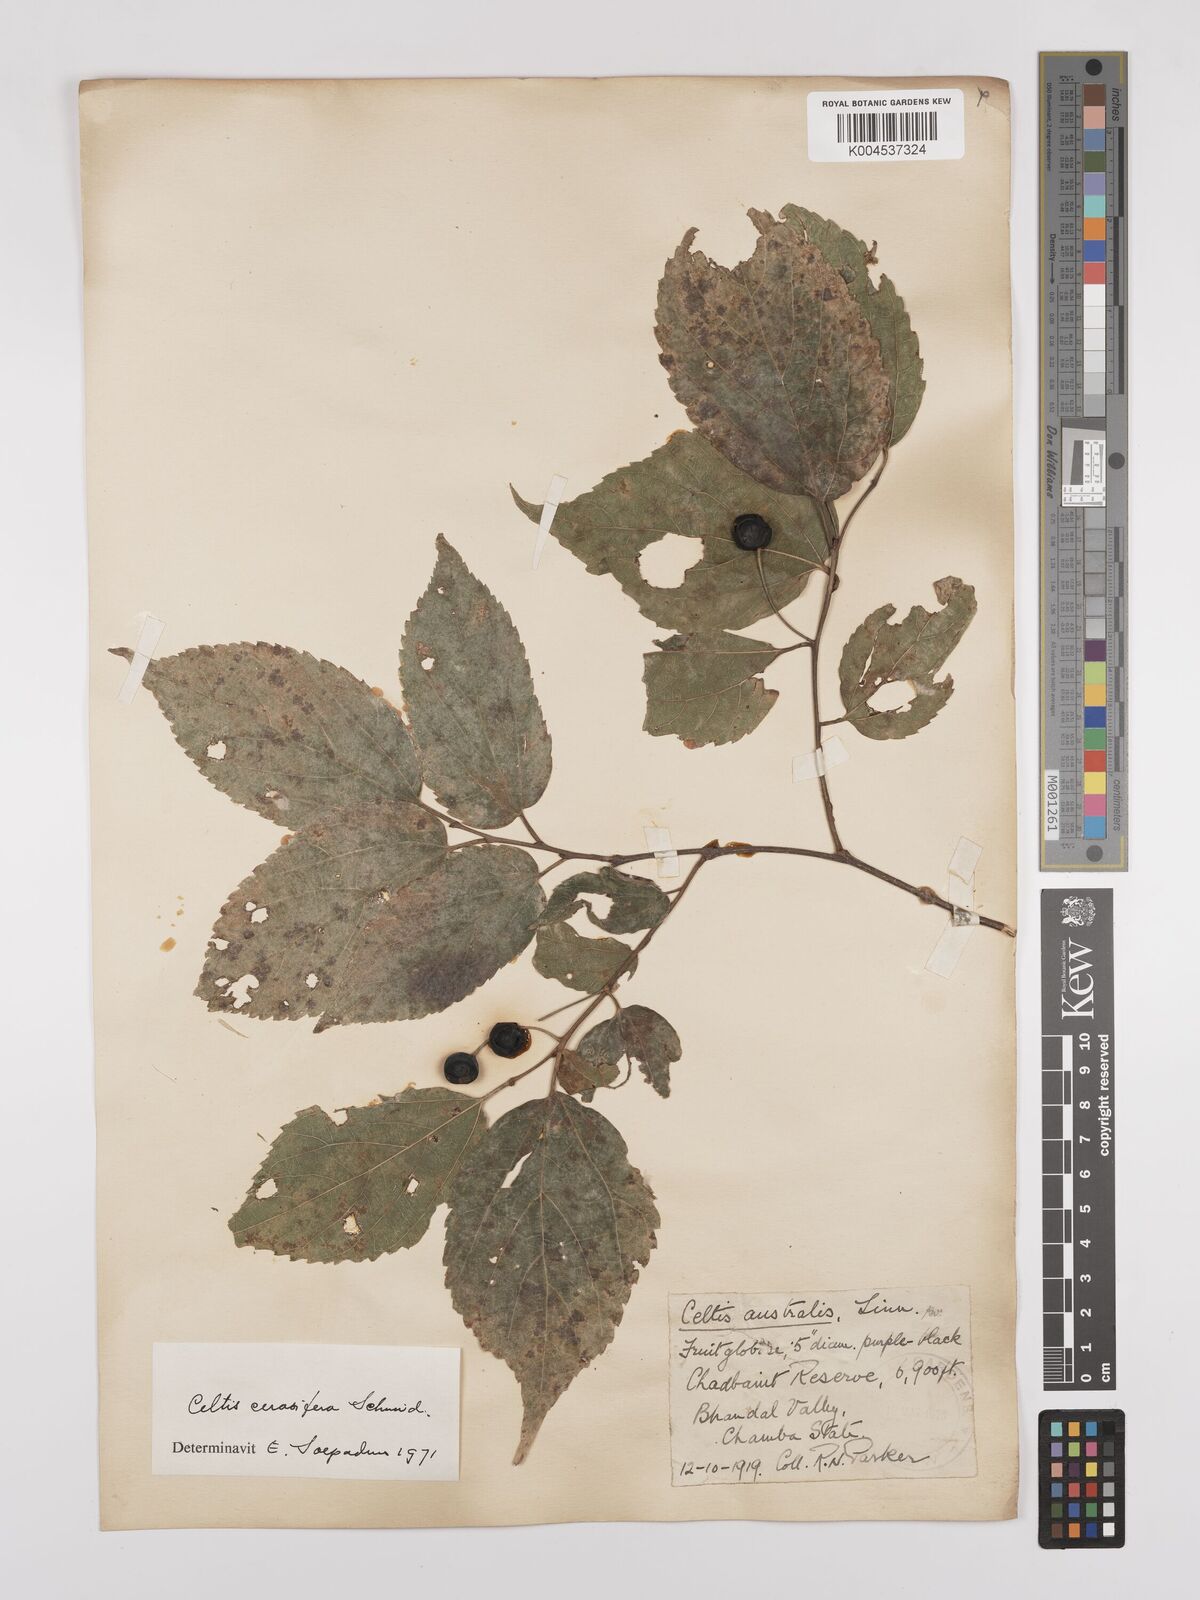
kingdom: Plantae
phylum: Tracheophyta
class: Magnoliopsida
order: Rosales
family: Cannabaceae
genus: Celtis
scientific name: Celtis cerasifera
